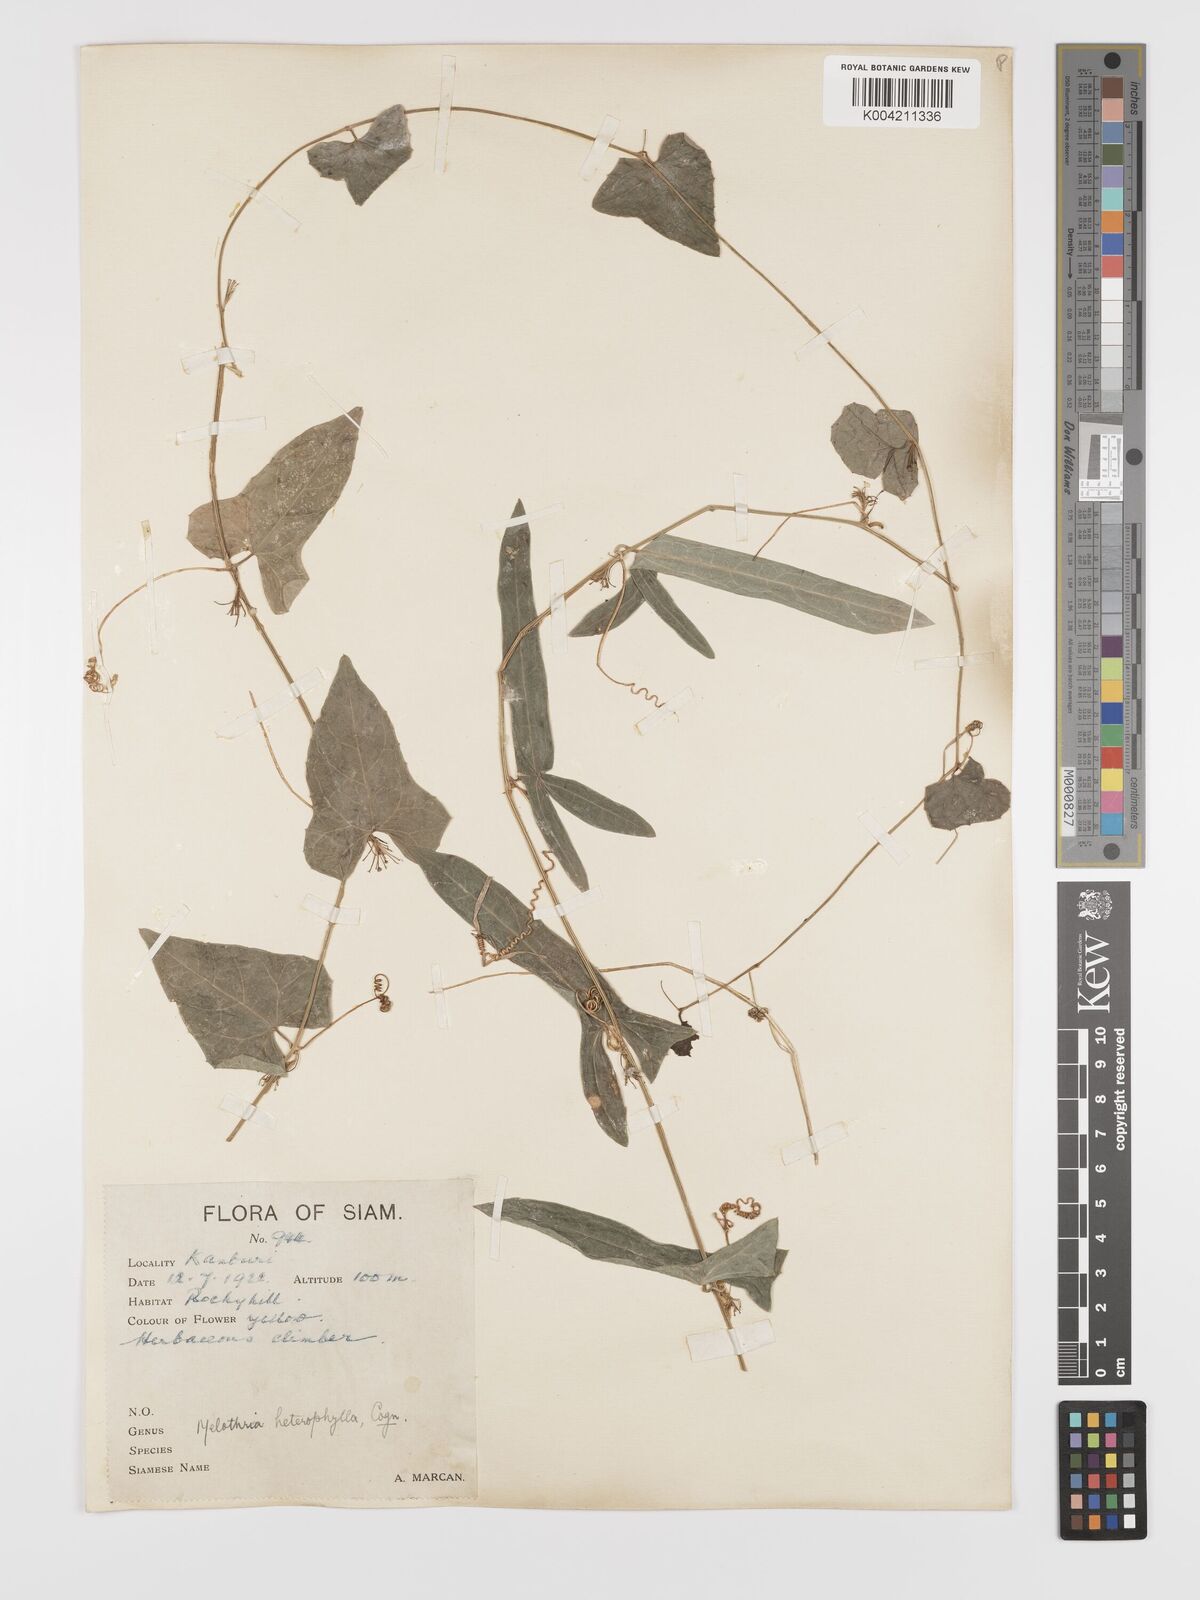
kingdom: Plantae
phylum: Tracheophyta
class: Magnoliopsida
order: Cucurbitales
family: Cucurbitaceae
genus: Solena
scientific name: Solena amplexicaulis
